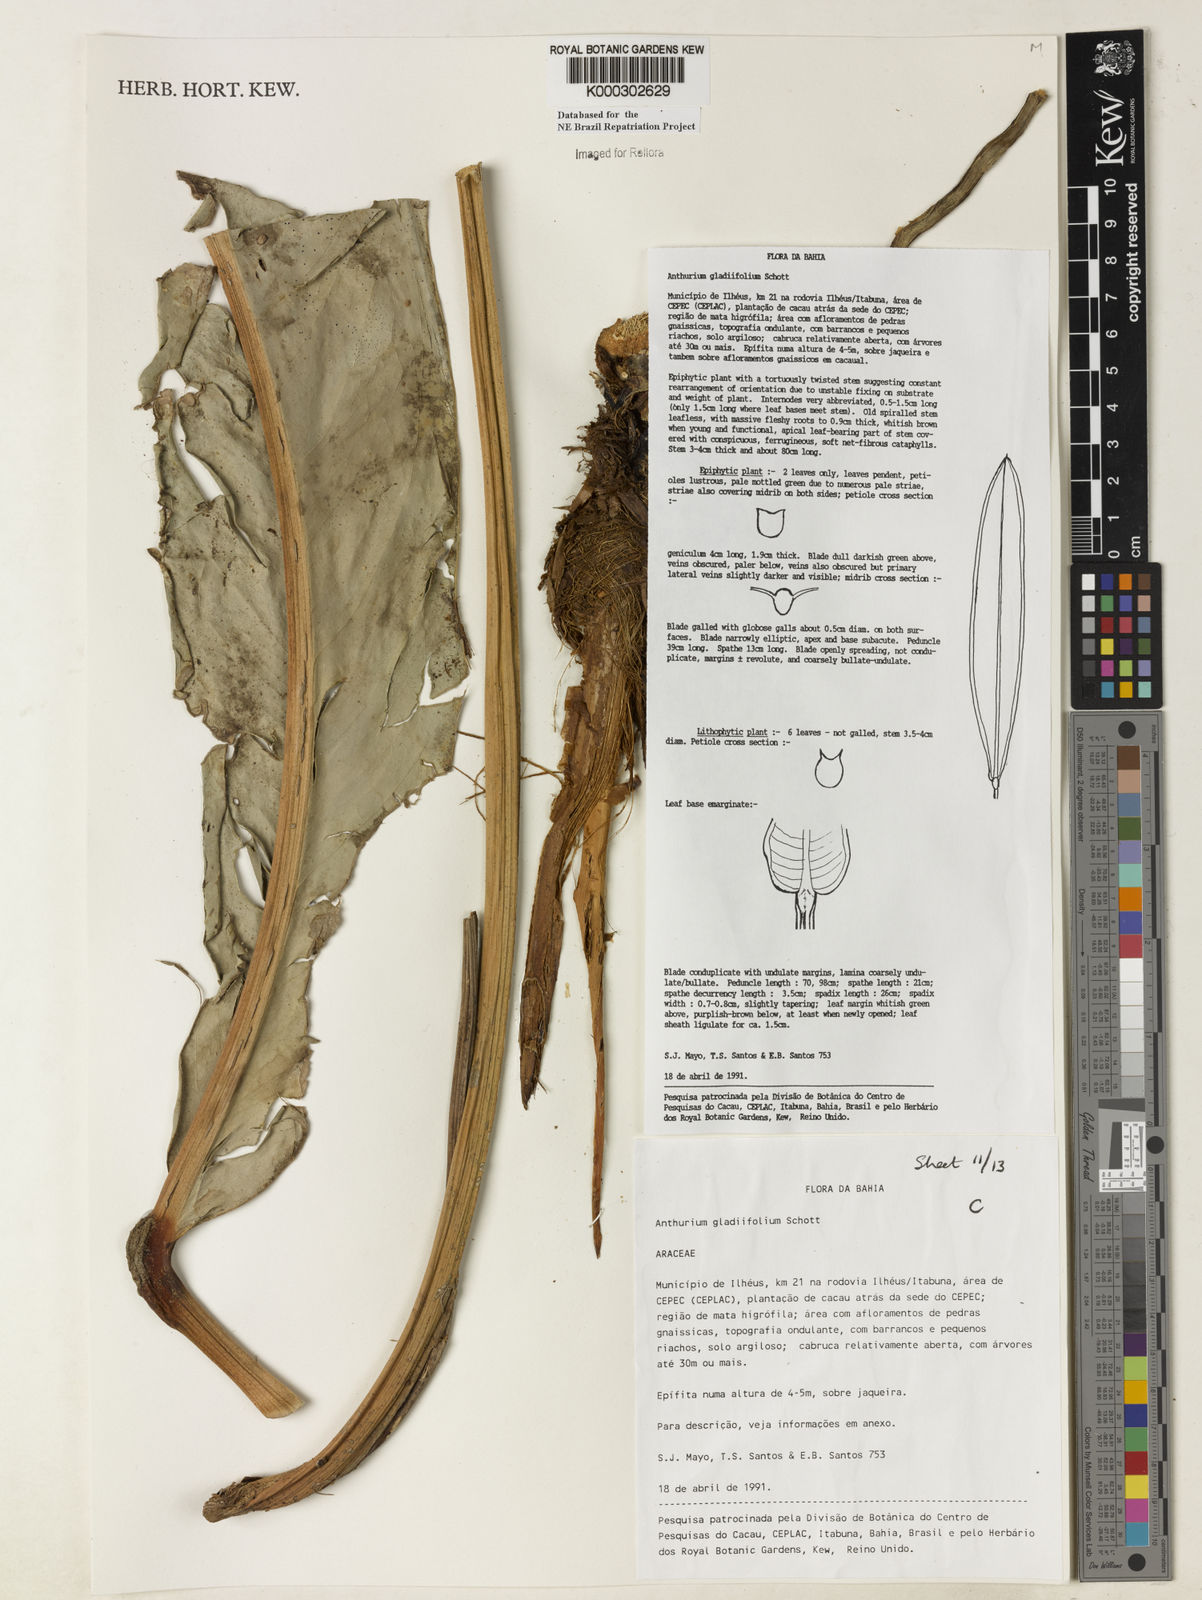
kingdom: Plantae
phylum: Tracheophyta
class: Liliopsida
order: Alismatales
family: Araceae
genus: Anthurium
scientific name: Anthurium gladiifolium
